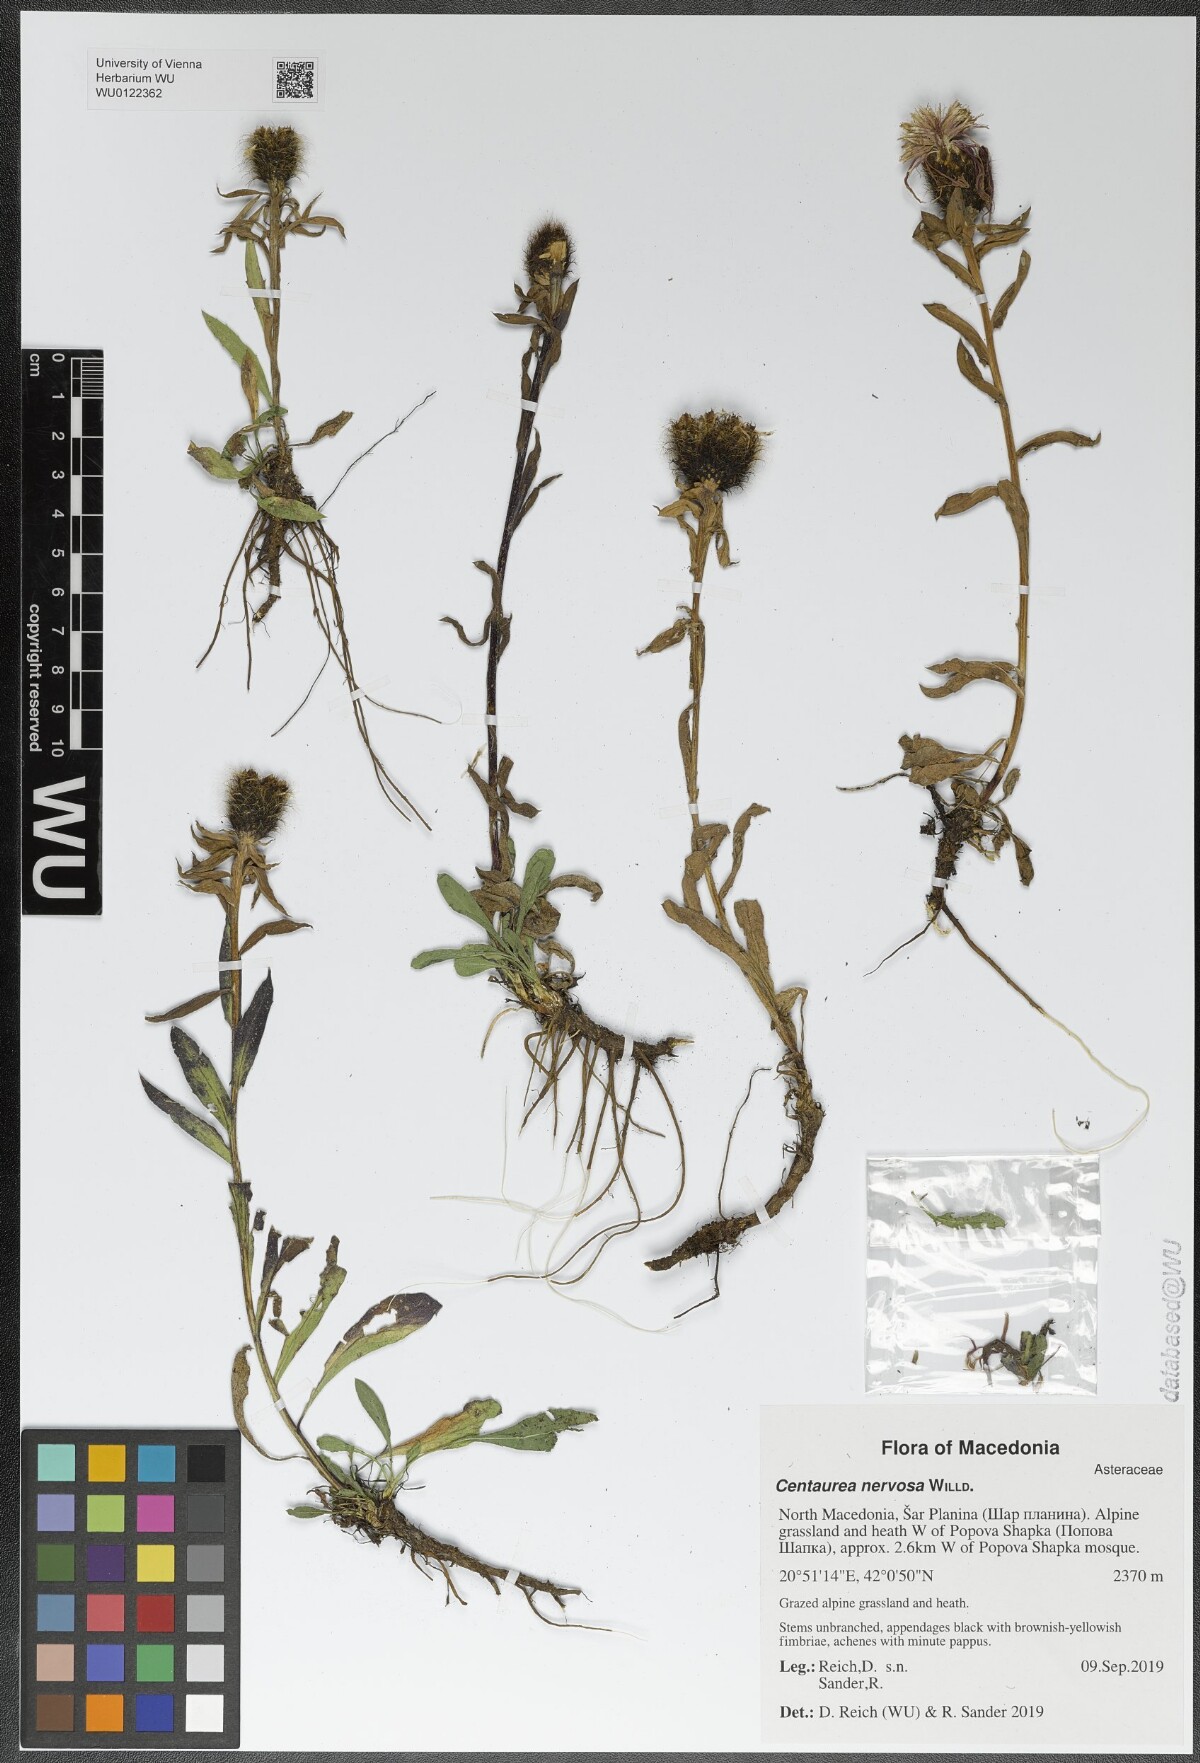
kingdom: Plantae
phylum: Tracheophyta
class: Magnoliopsida
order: Asterales
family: Asteraceae
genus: Centaurea
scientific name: Centaurea nervosa
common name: Singleflower knapweed
